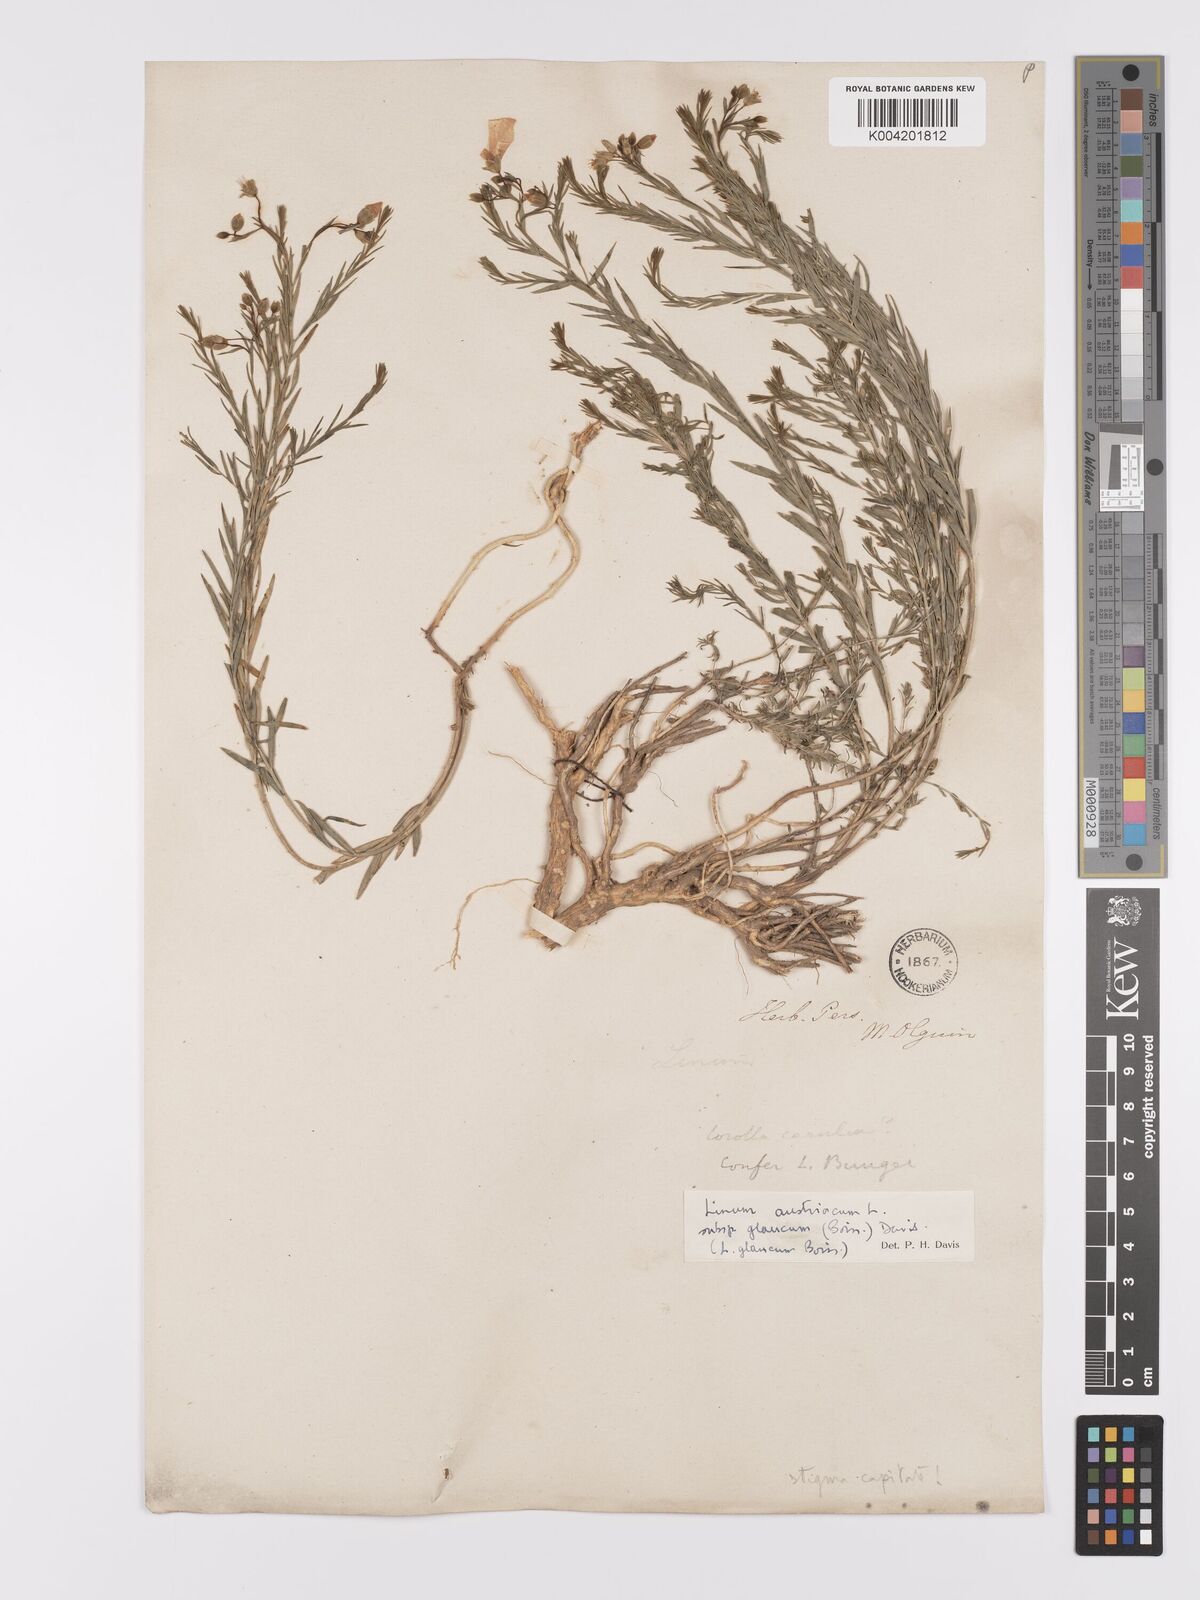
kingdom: Plantae
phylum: Tracheophyta
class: Magnoliopsida
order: Malpighiales
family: Linaceae
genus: Linum
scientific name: Linum
